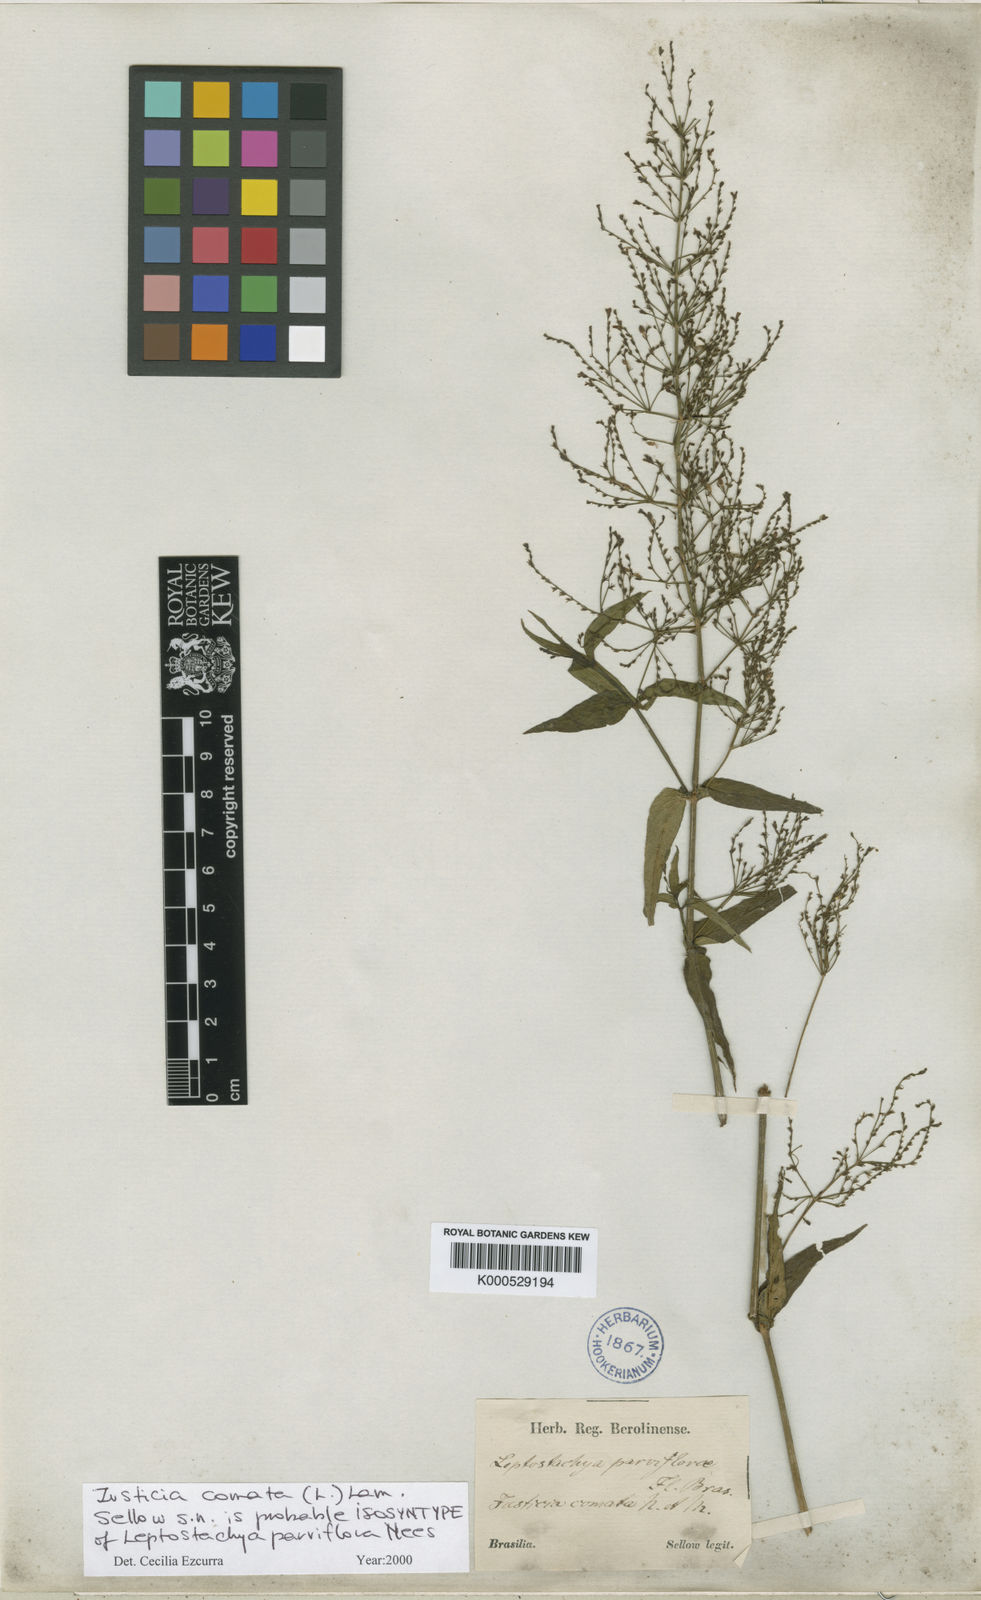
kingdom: Plantae
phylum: Tracheophyta
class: Magnoliopsida
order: Lamiales
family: Acanthaceae
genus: Dianthera
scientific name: Dianthera comata
